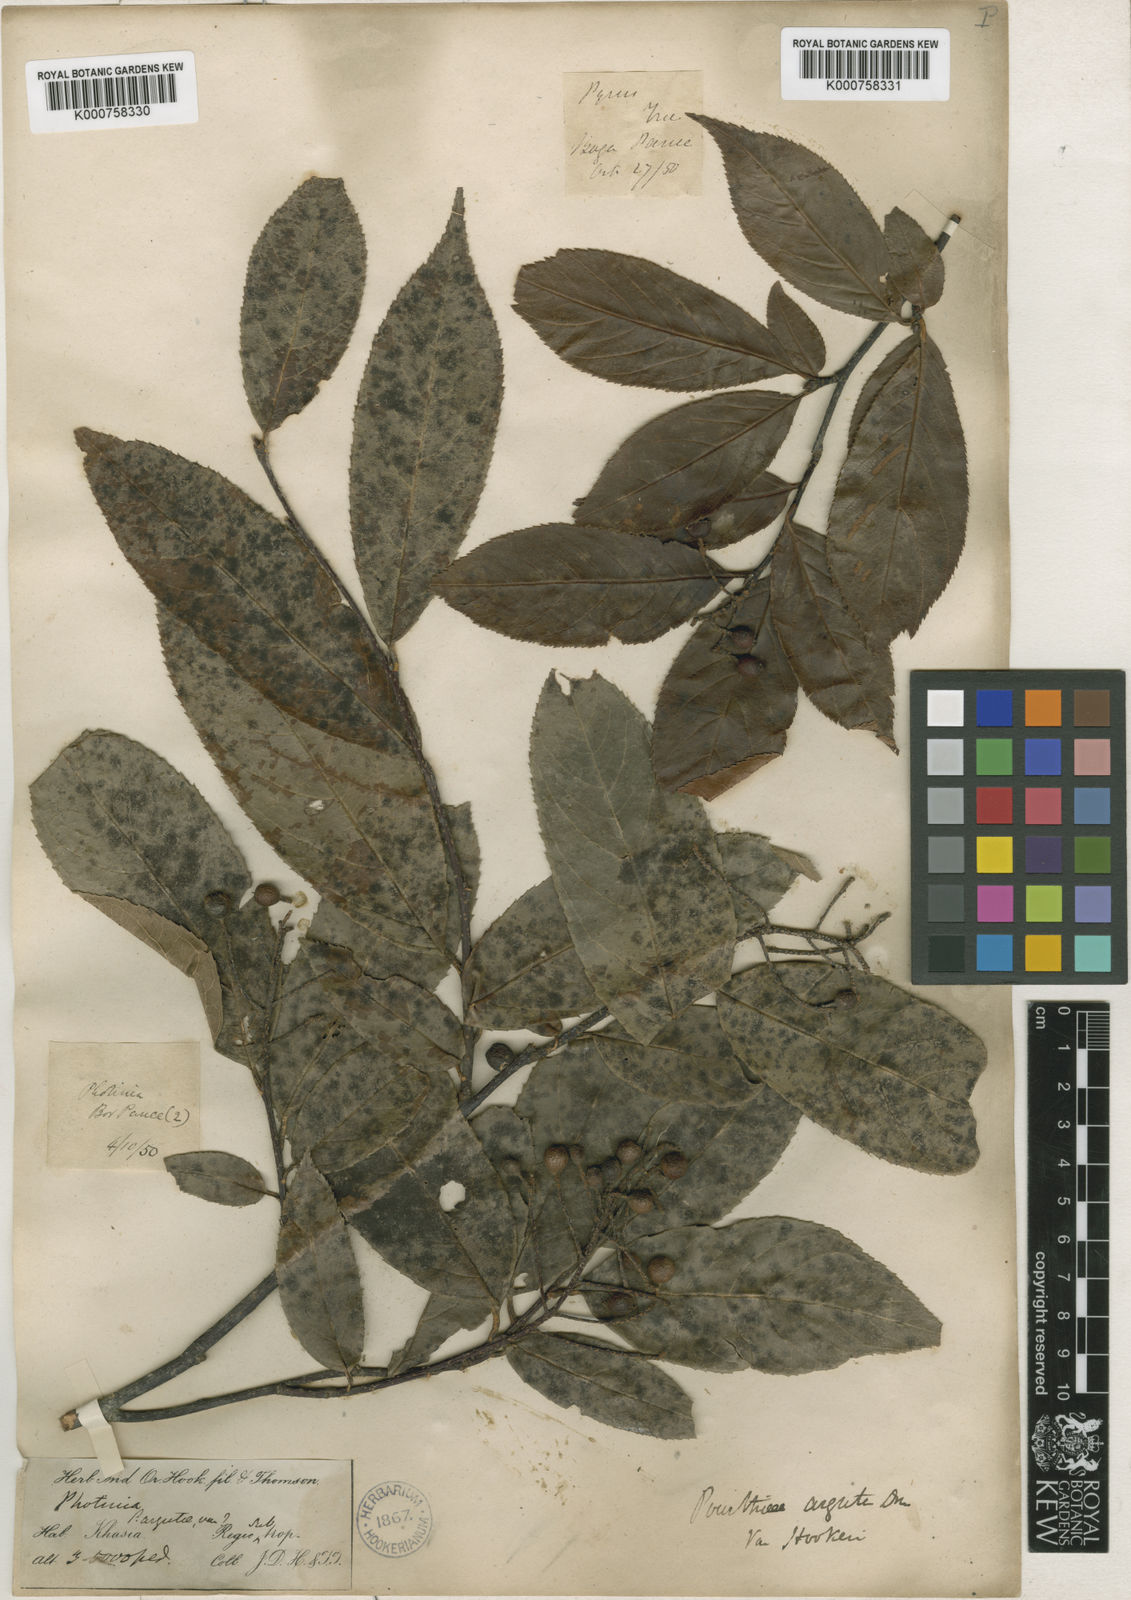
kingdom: Plantae
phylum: Tracheophyta
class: Magnoliopsida
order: Rosales
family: Rosaceae
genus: Photinia
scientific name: Photinia
